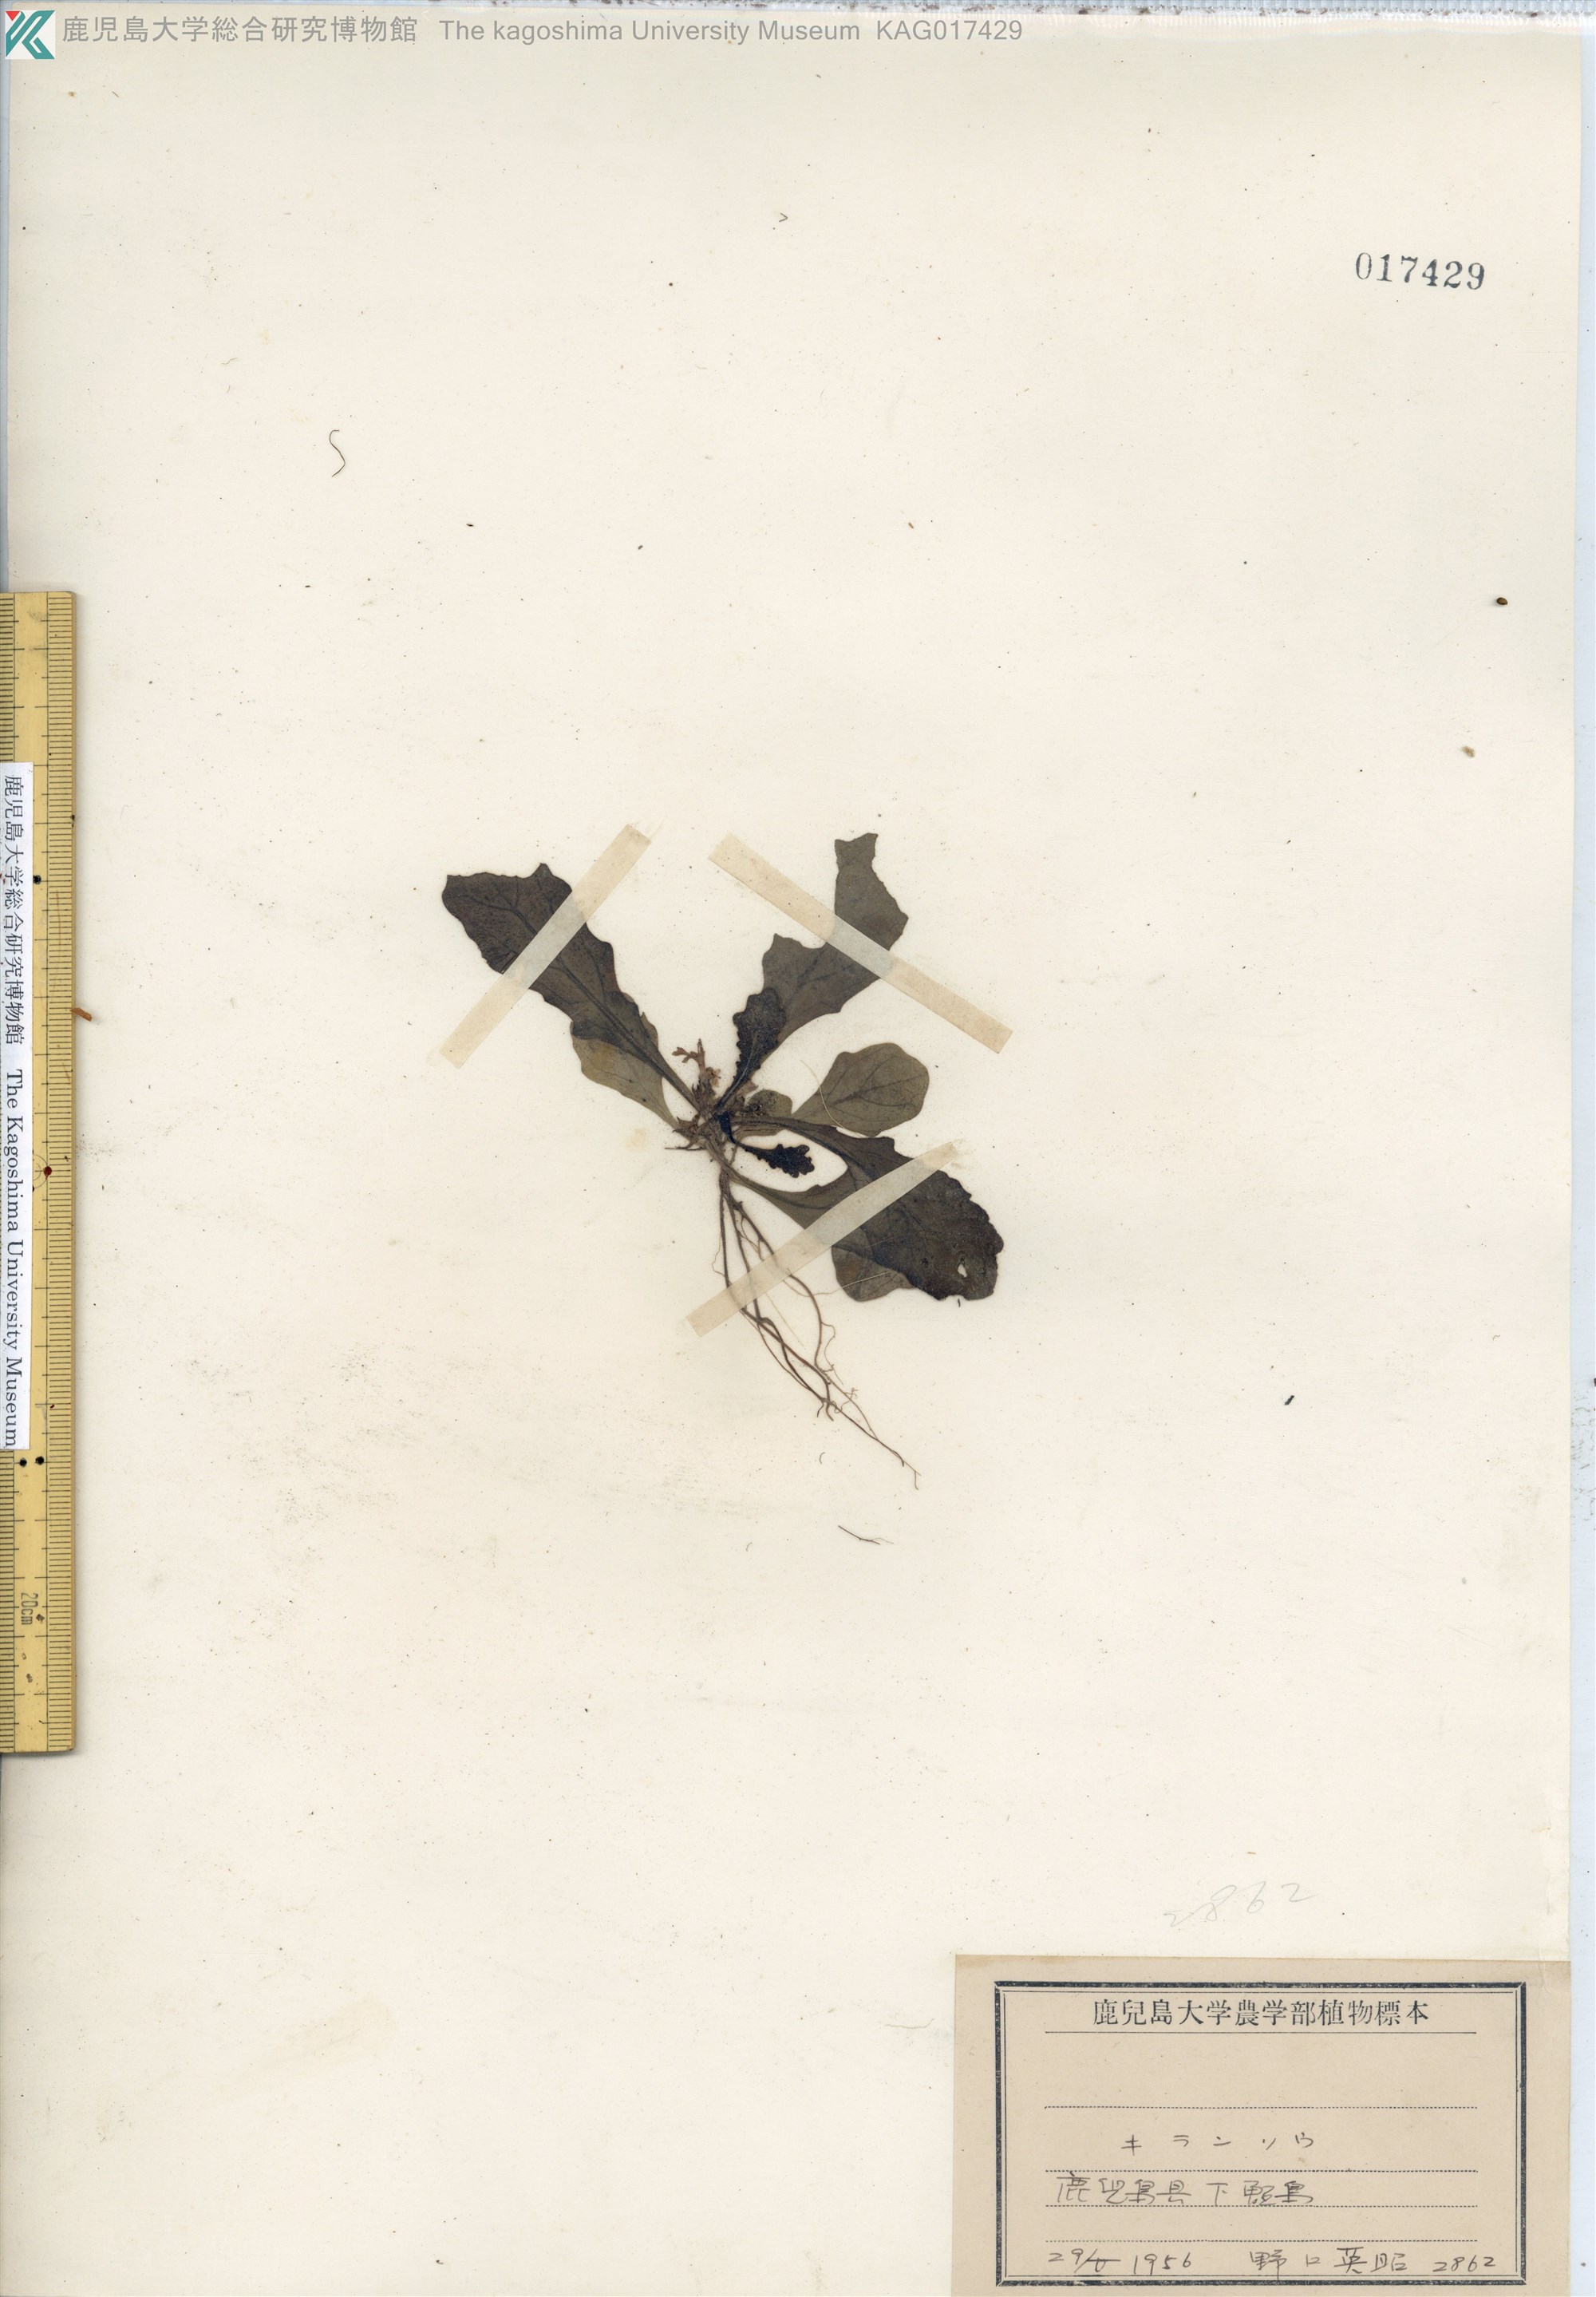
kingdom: Plantae
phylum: Tracheophyta
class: Magnoliopsida
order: Lamiales
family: Lamiaceae
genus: Ajuga
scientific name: Ajuga decumbens
